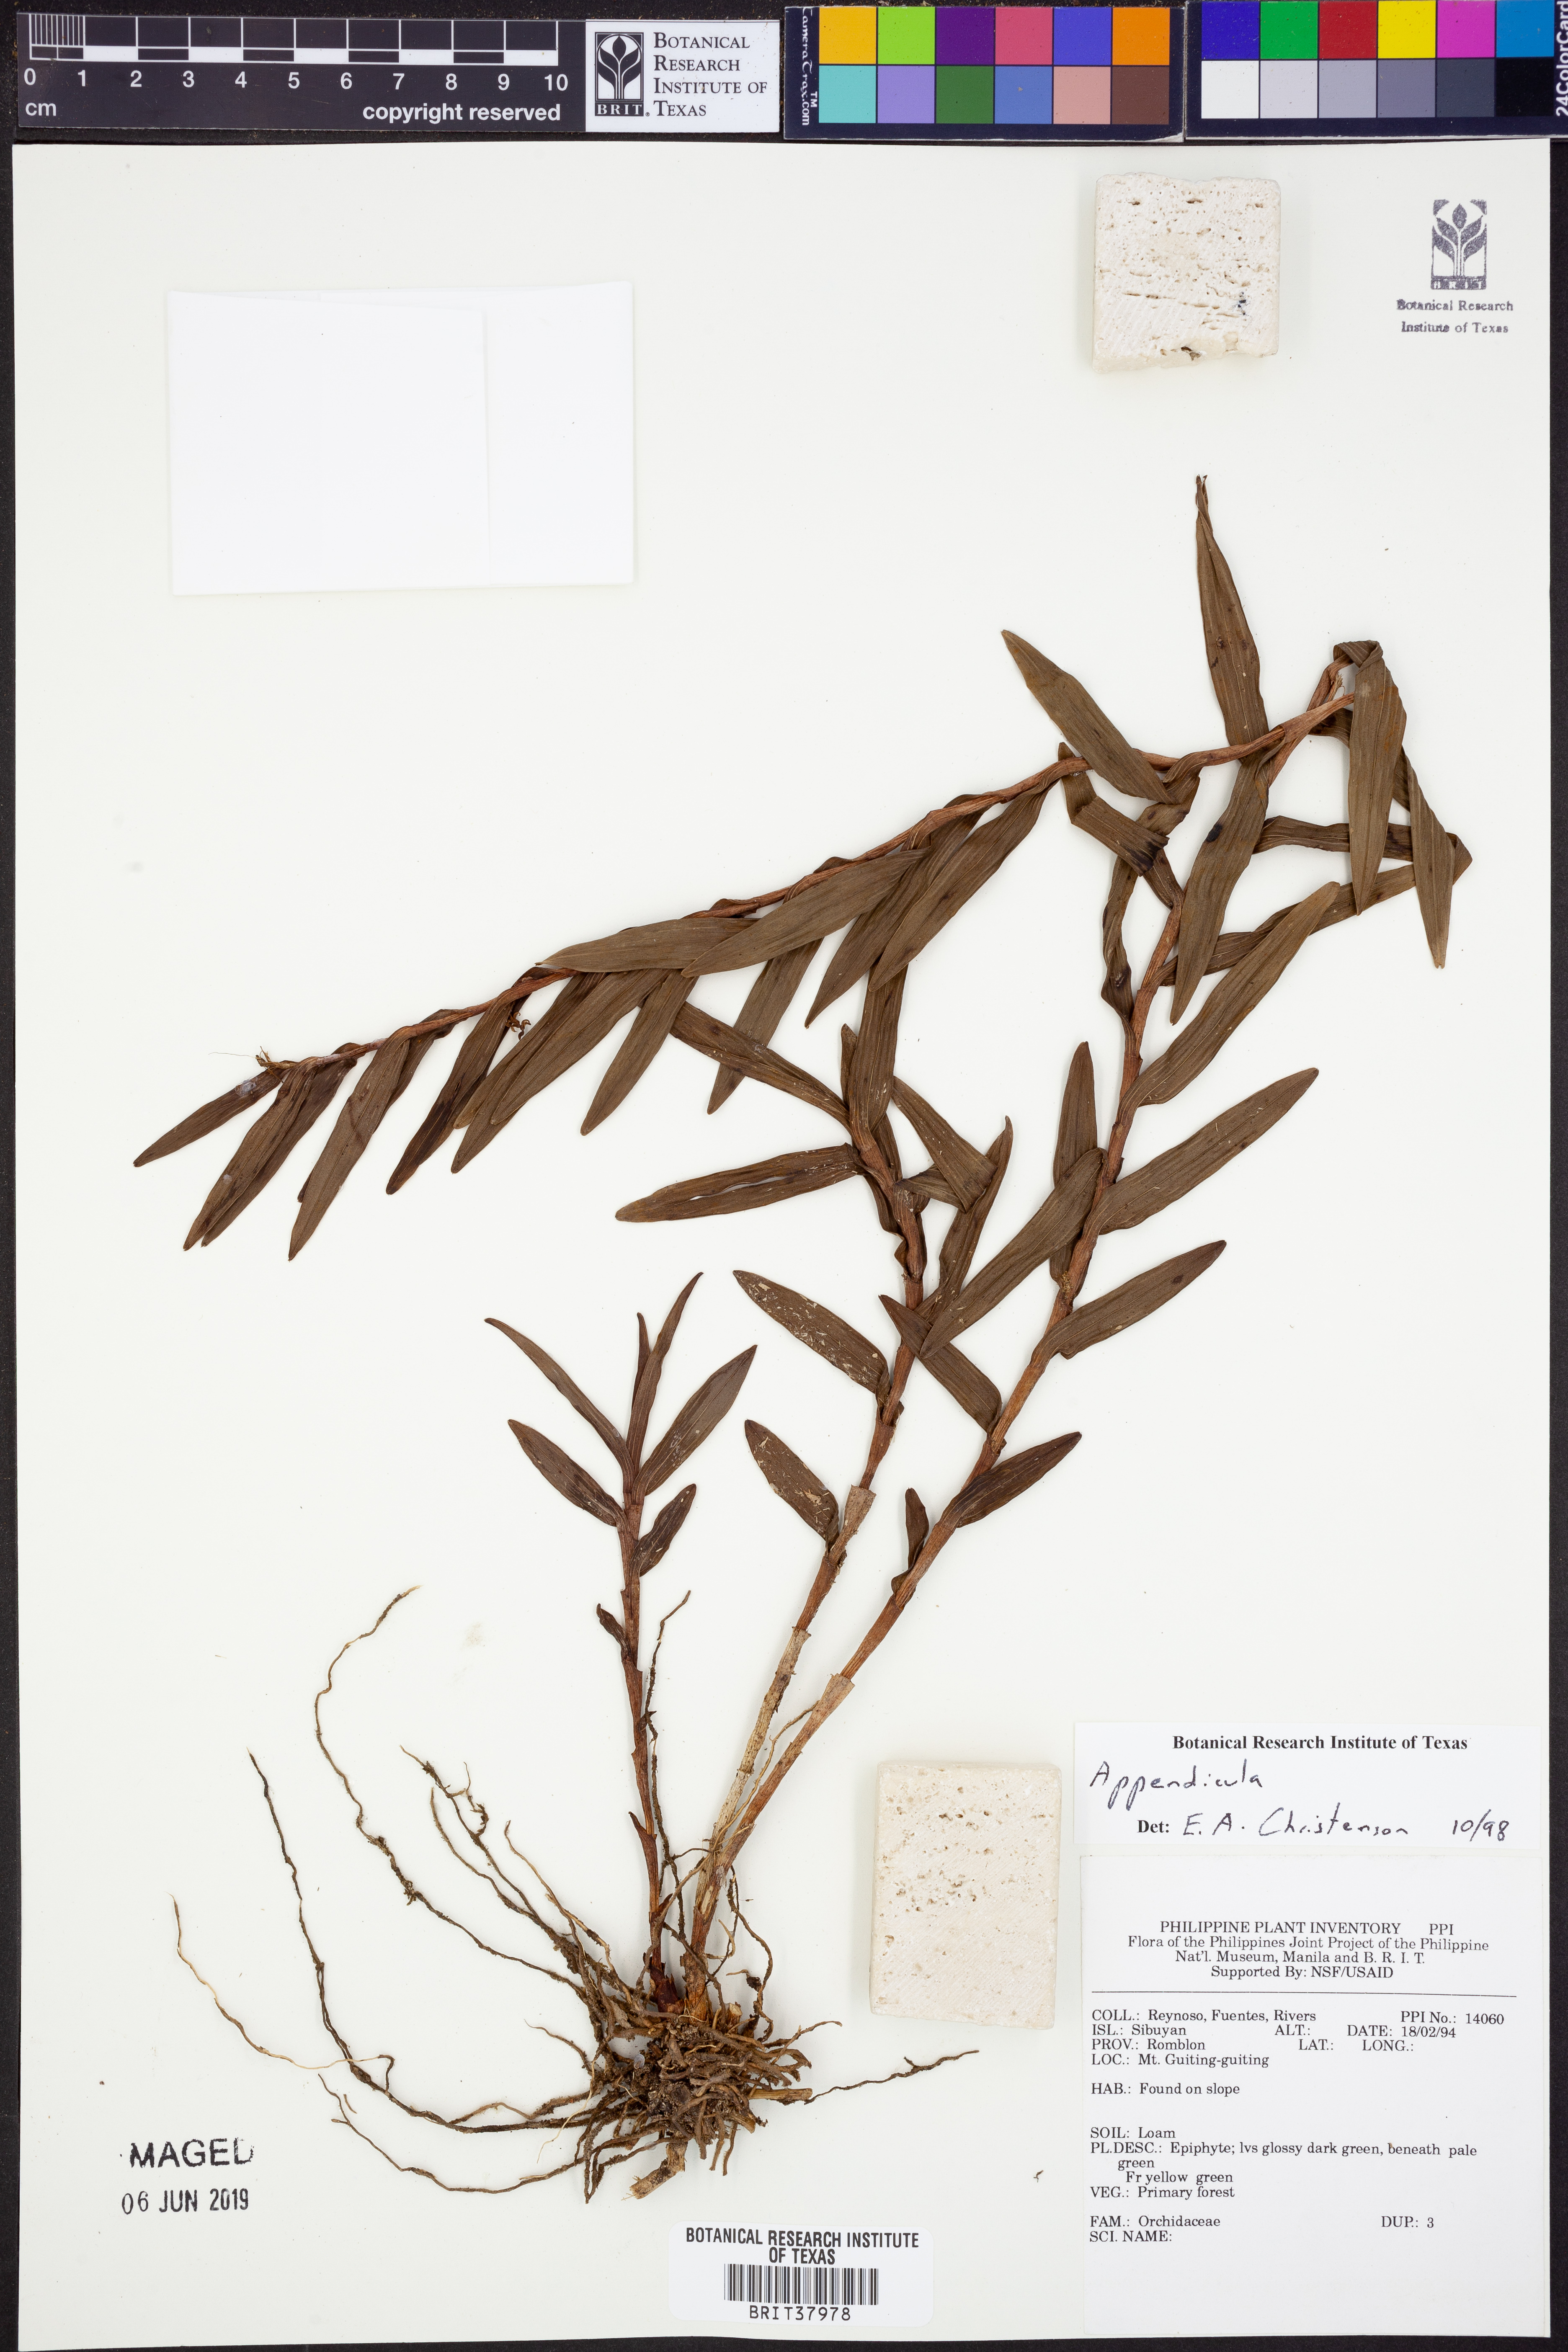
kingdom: Plantae
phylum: Tracheophyta
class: Liliopsida
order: Asparagales
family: Orchidaceae
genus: Appendicula
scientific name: Appendicula
